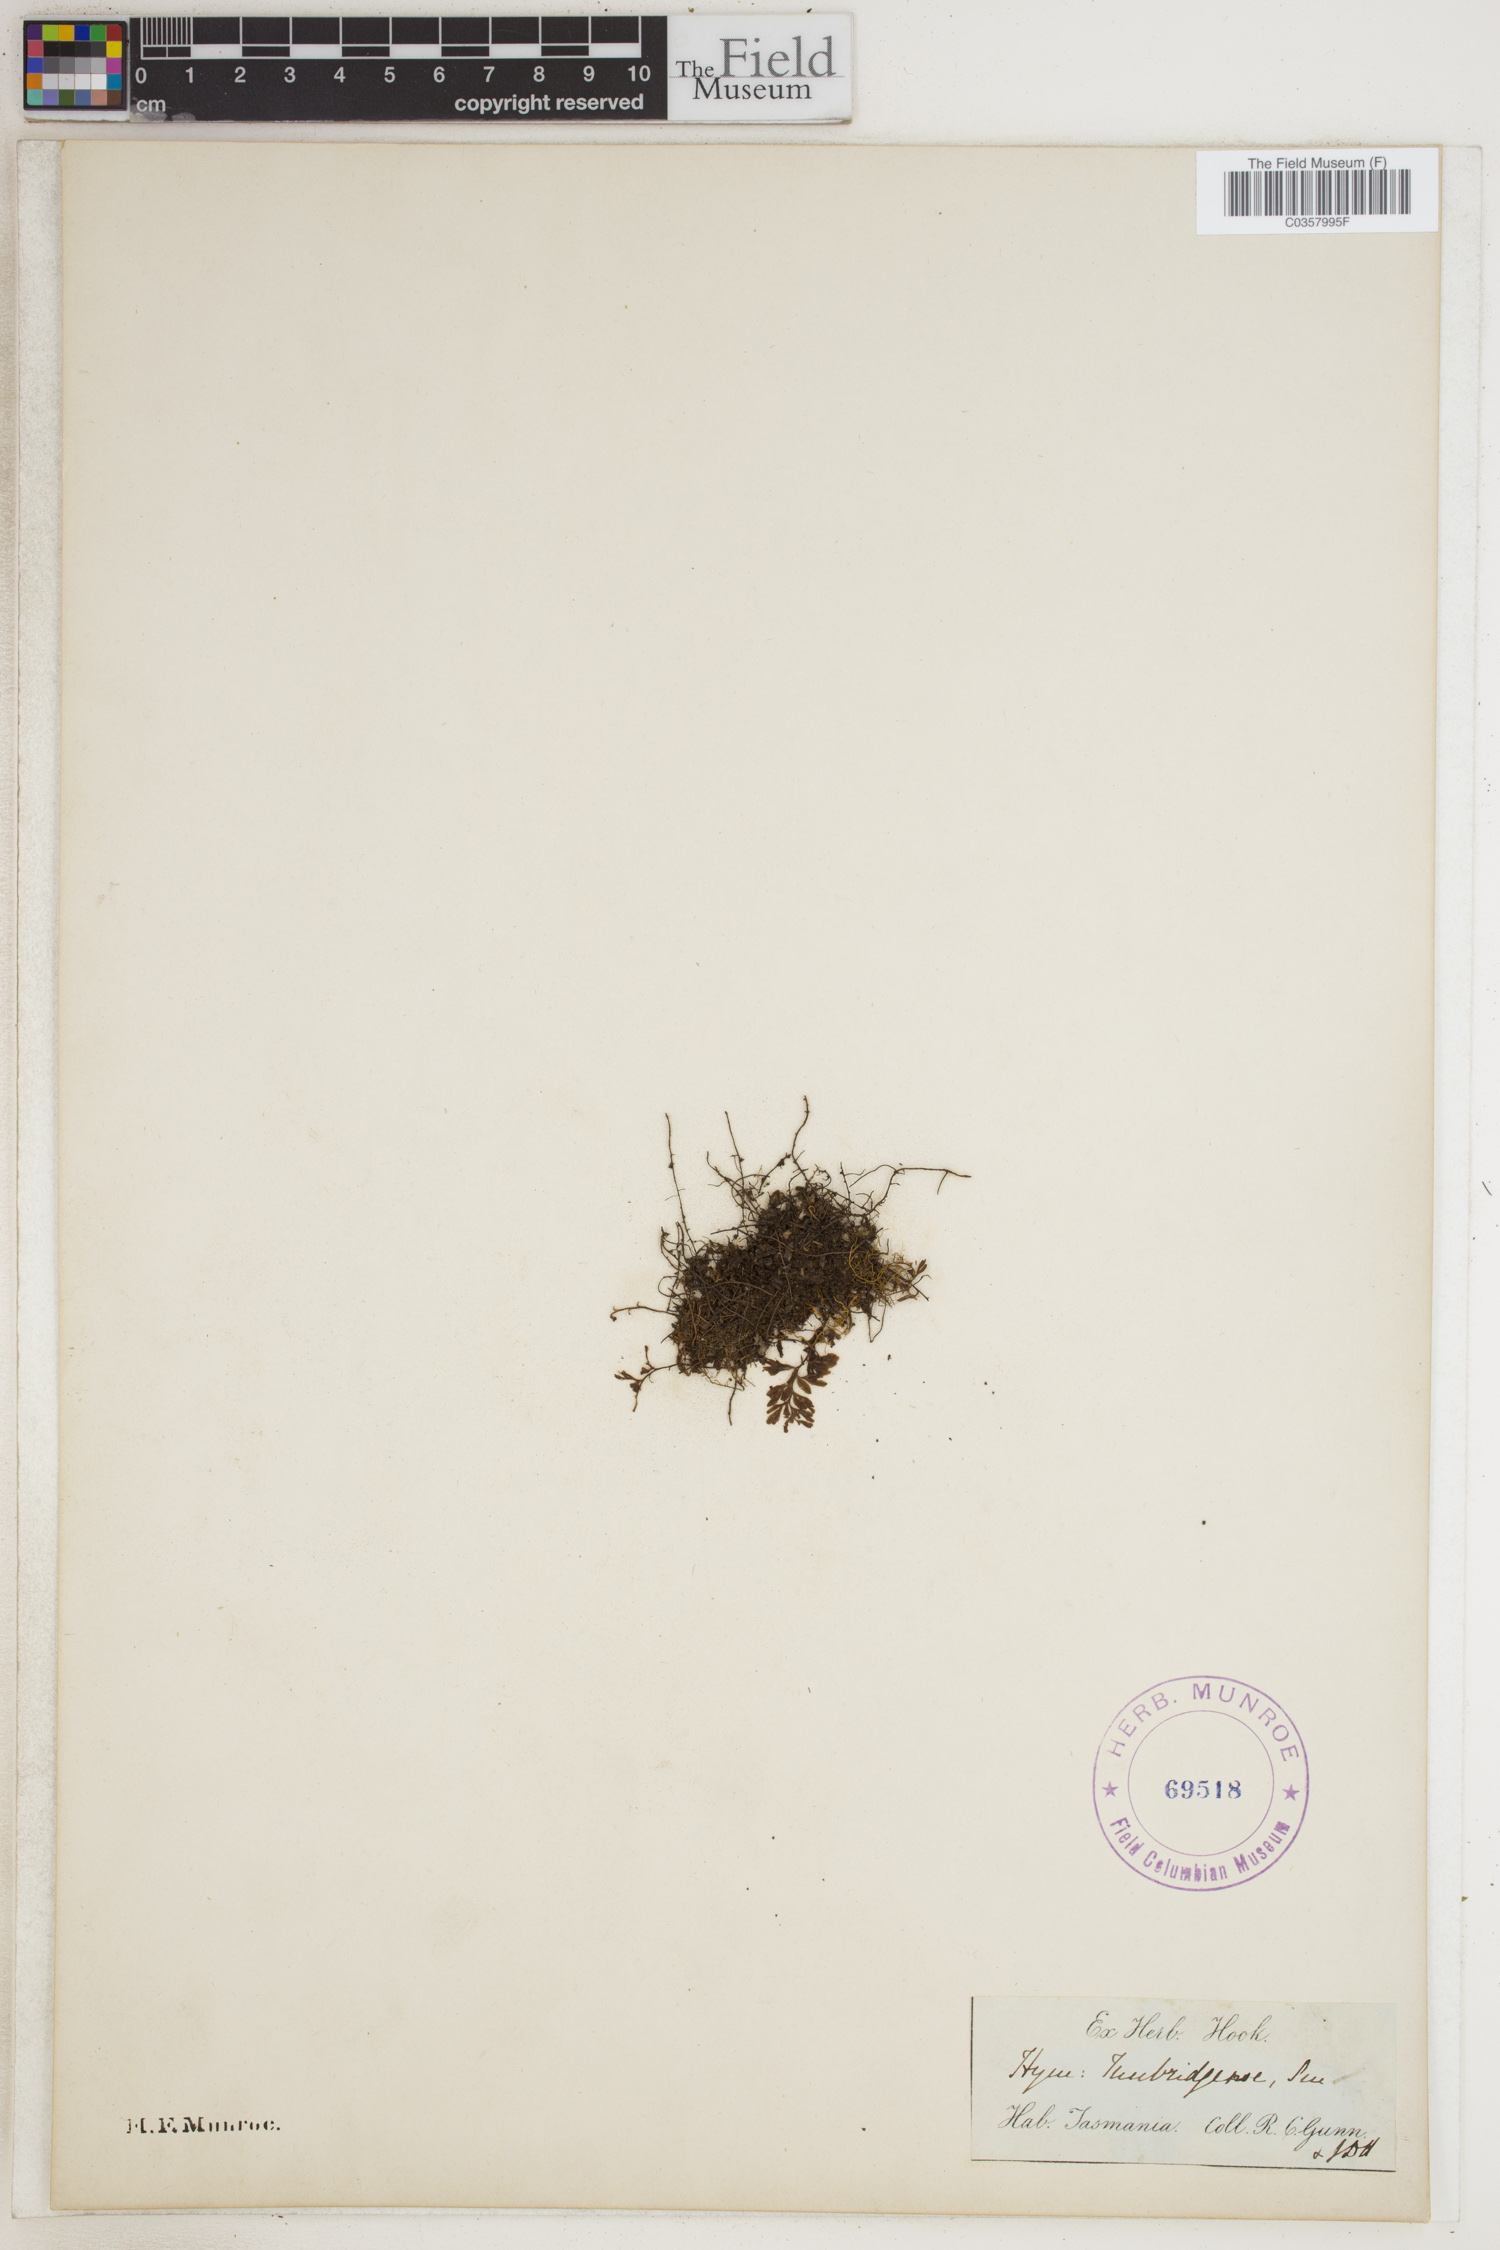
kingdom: Plantae
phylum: Tracheophyta
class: Polypodiopsida
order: Hymenophyllales
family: Hymenophyllaceae
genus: Hymenophyllum
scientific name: Hymenophyllum tunbridgense
